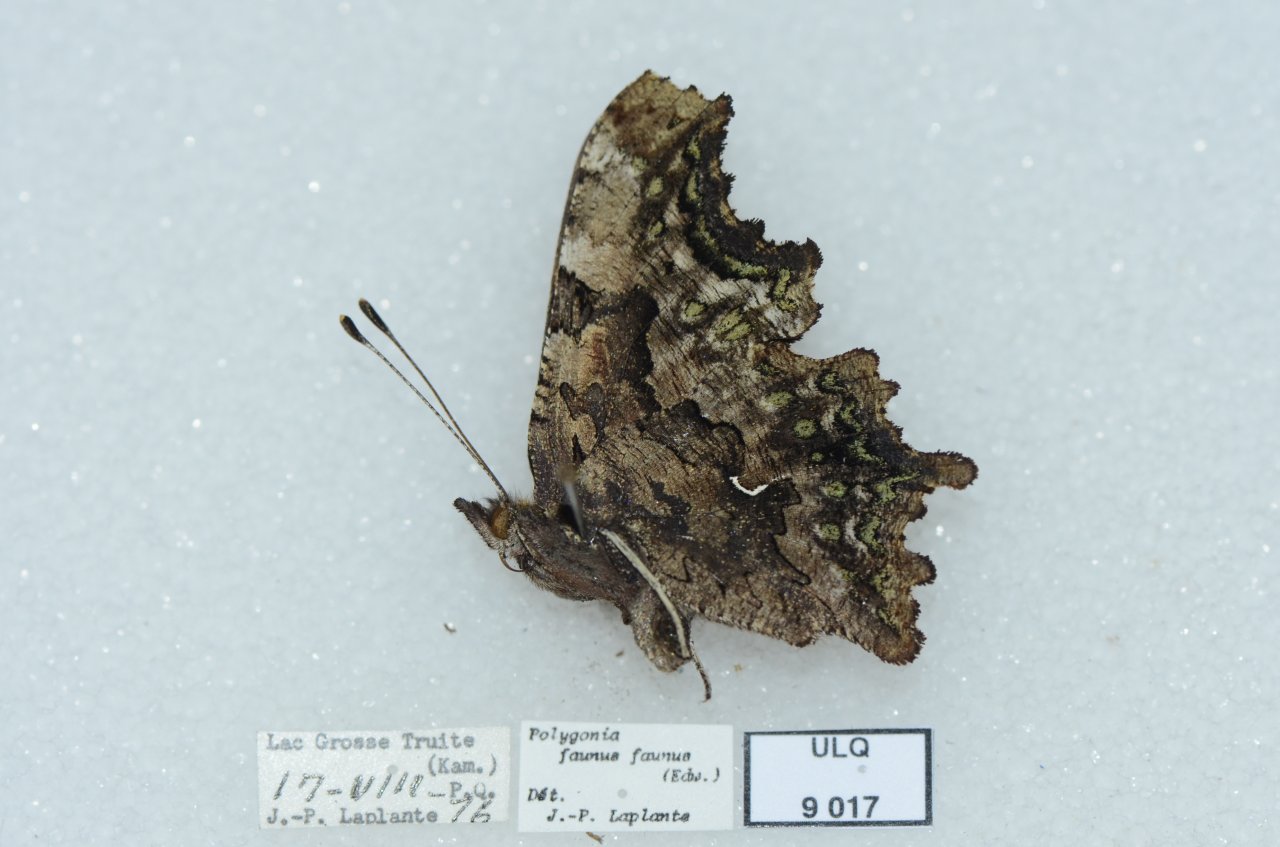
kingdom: Animalia
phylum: Arthropoda
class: Insecta
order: Lepidoptera
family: Nymphalidae
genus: Polygonia
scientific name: Polygonia faunus
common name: Green Comma
